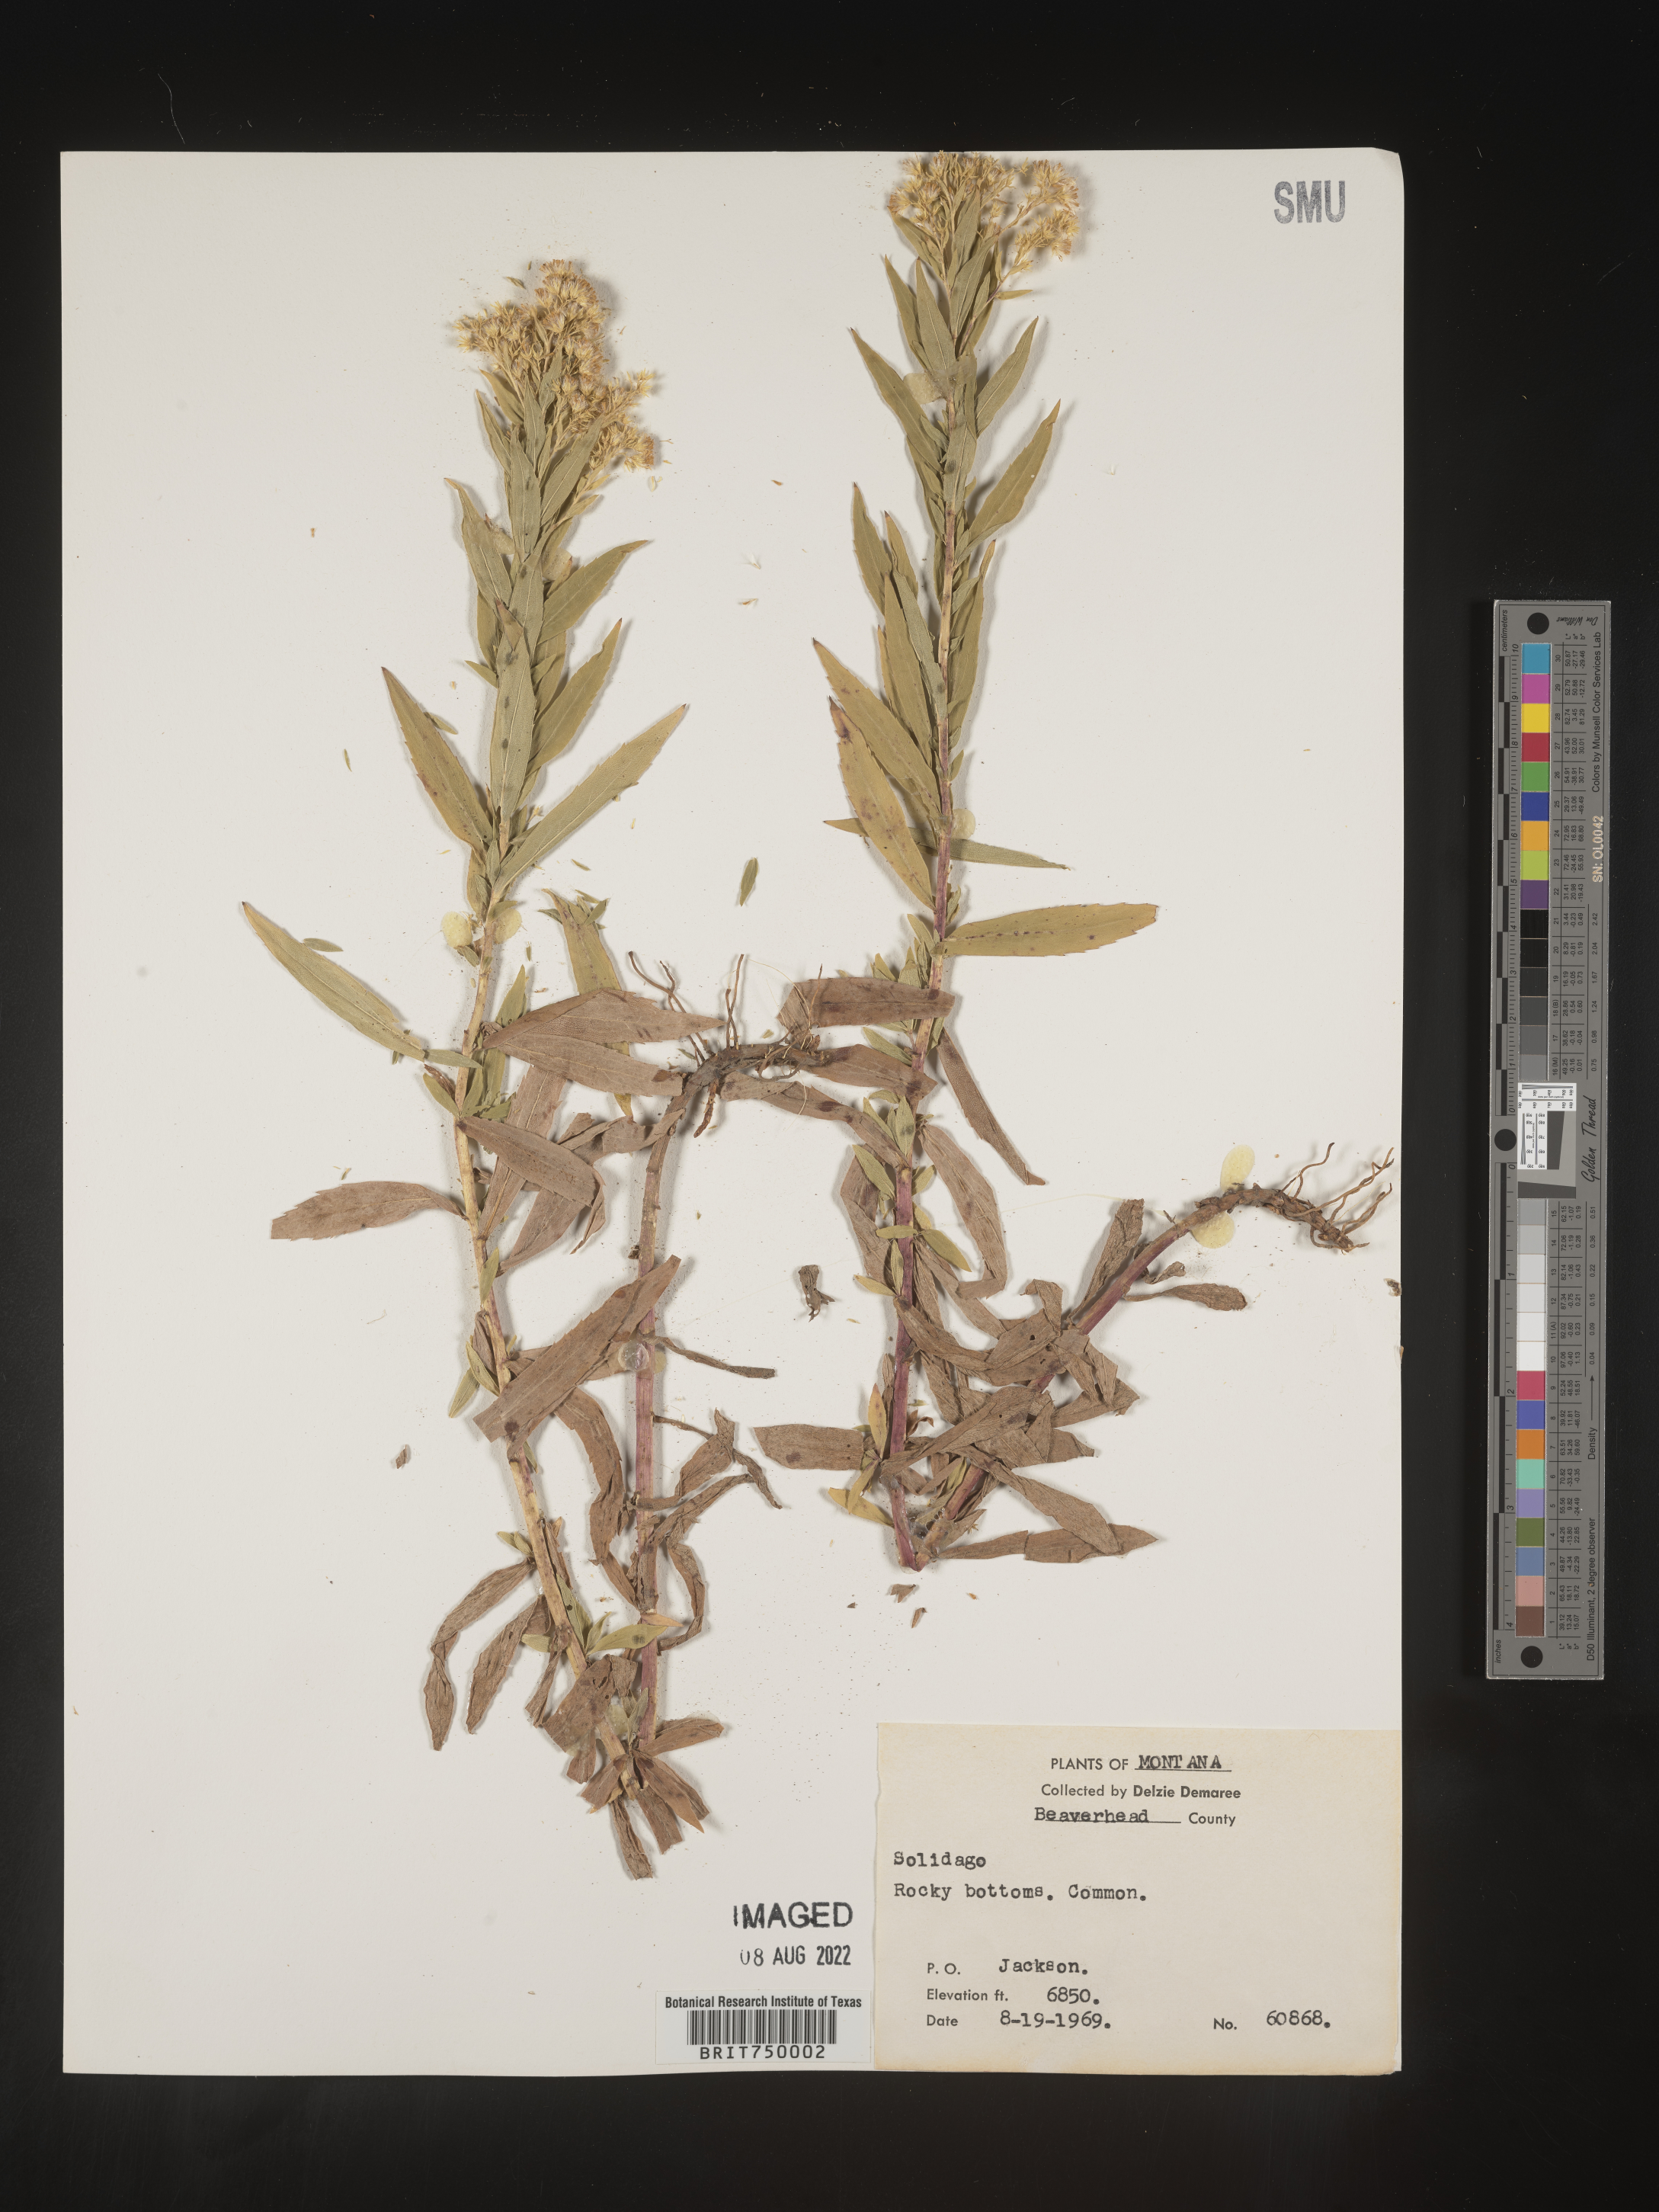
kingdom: Plantae
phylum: Tracheophyta
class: Magnoliopsida
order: Asterales
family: Asteraceae
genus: Solidago
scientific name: Solidago
